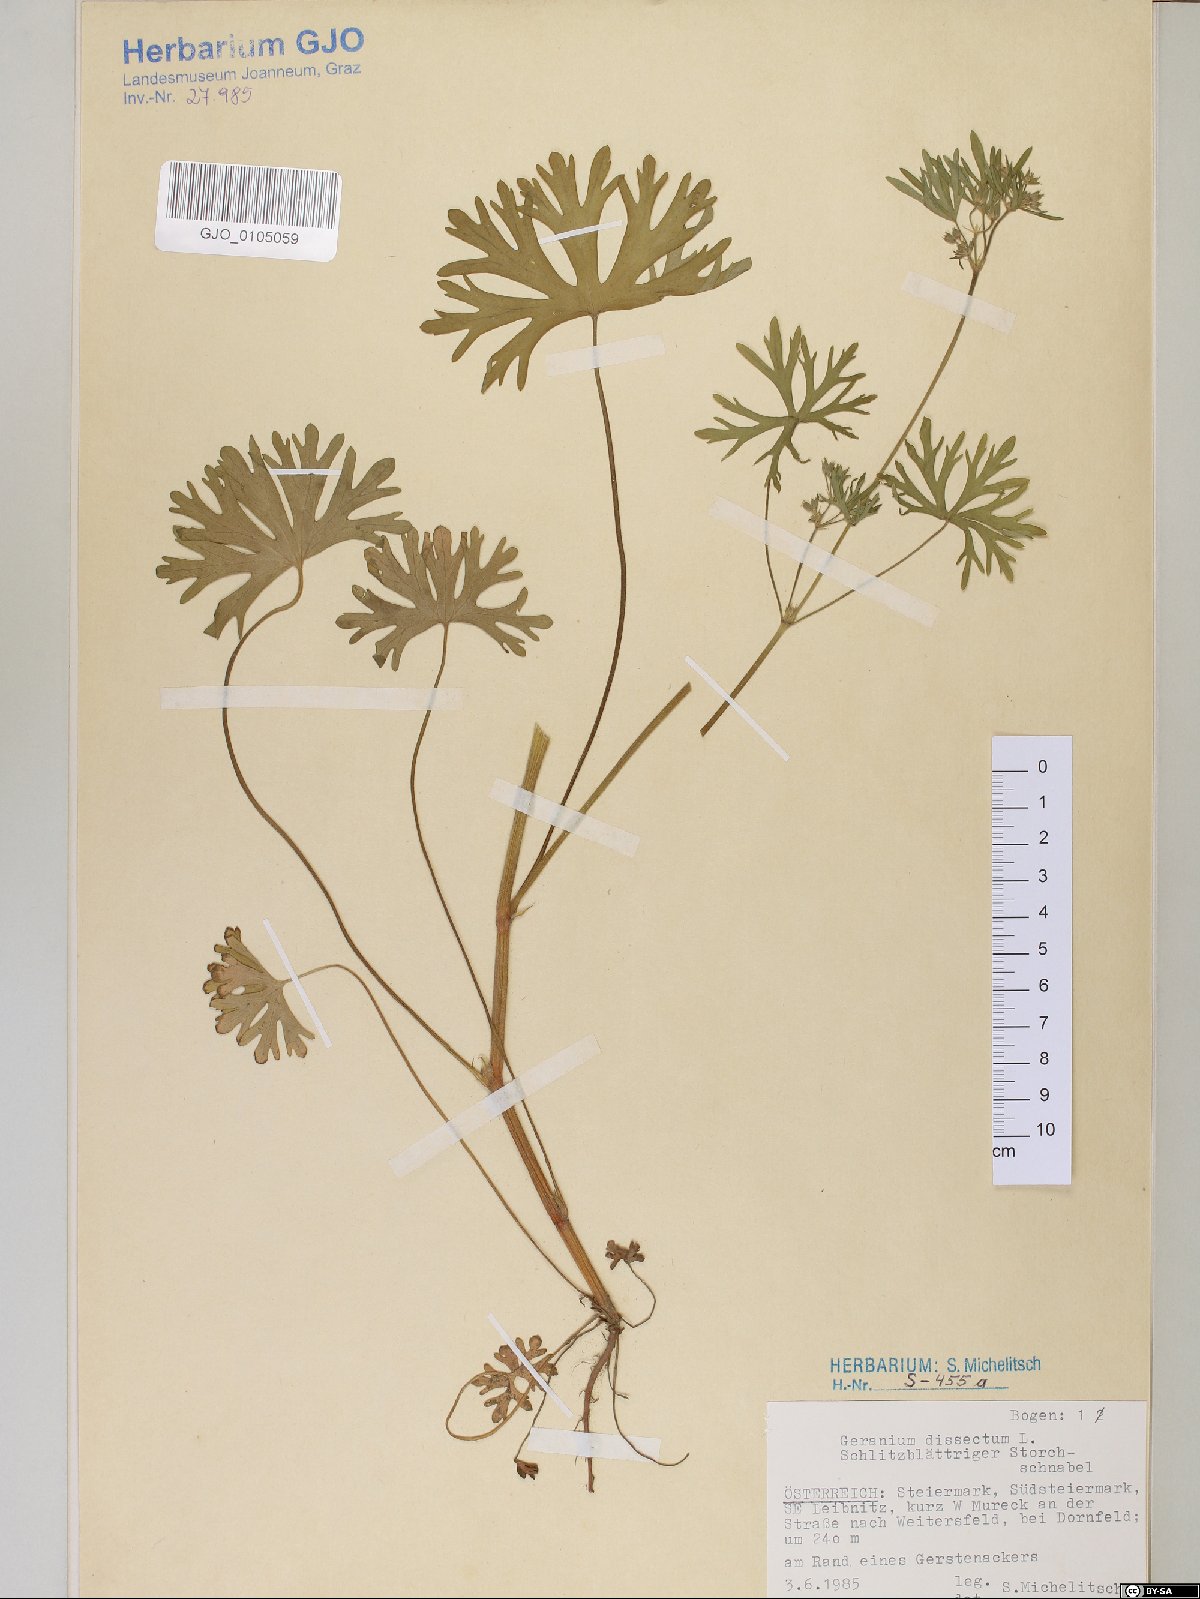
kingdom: Plantae
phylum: Tracheophyta
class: Magnoliopsida
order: Geraniales
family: Geraniaceae
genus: Geranium
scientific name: Geranium dissectum
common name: Cut-leaved crane's-bill
